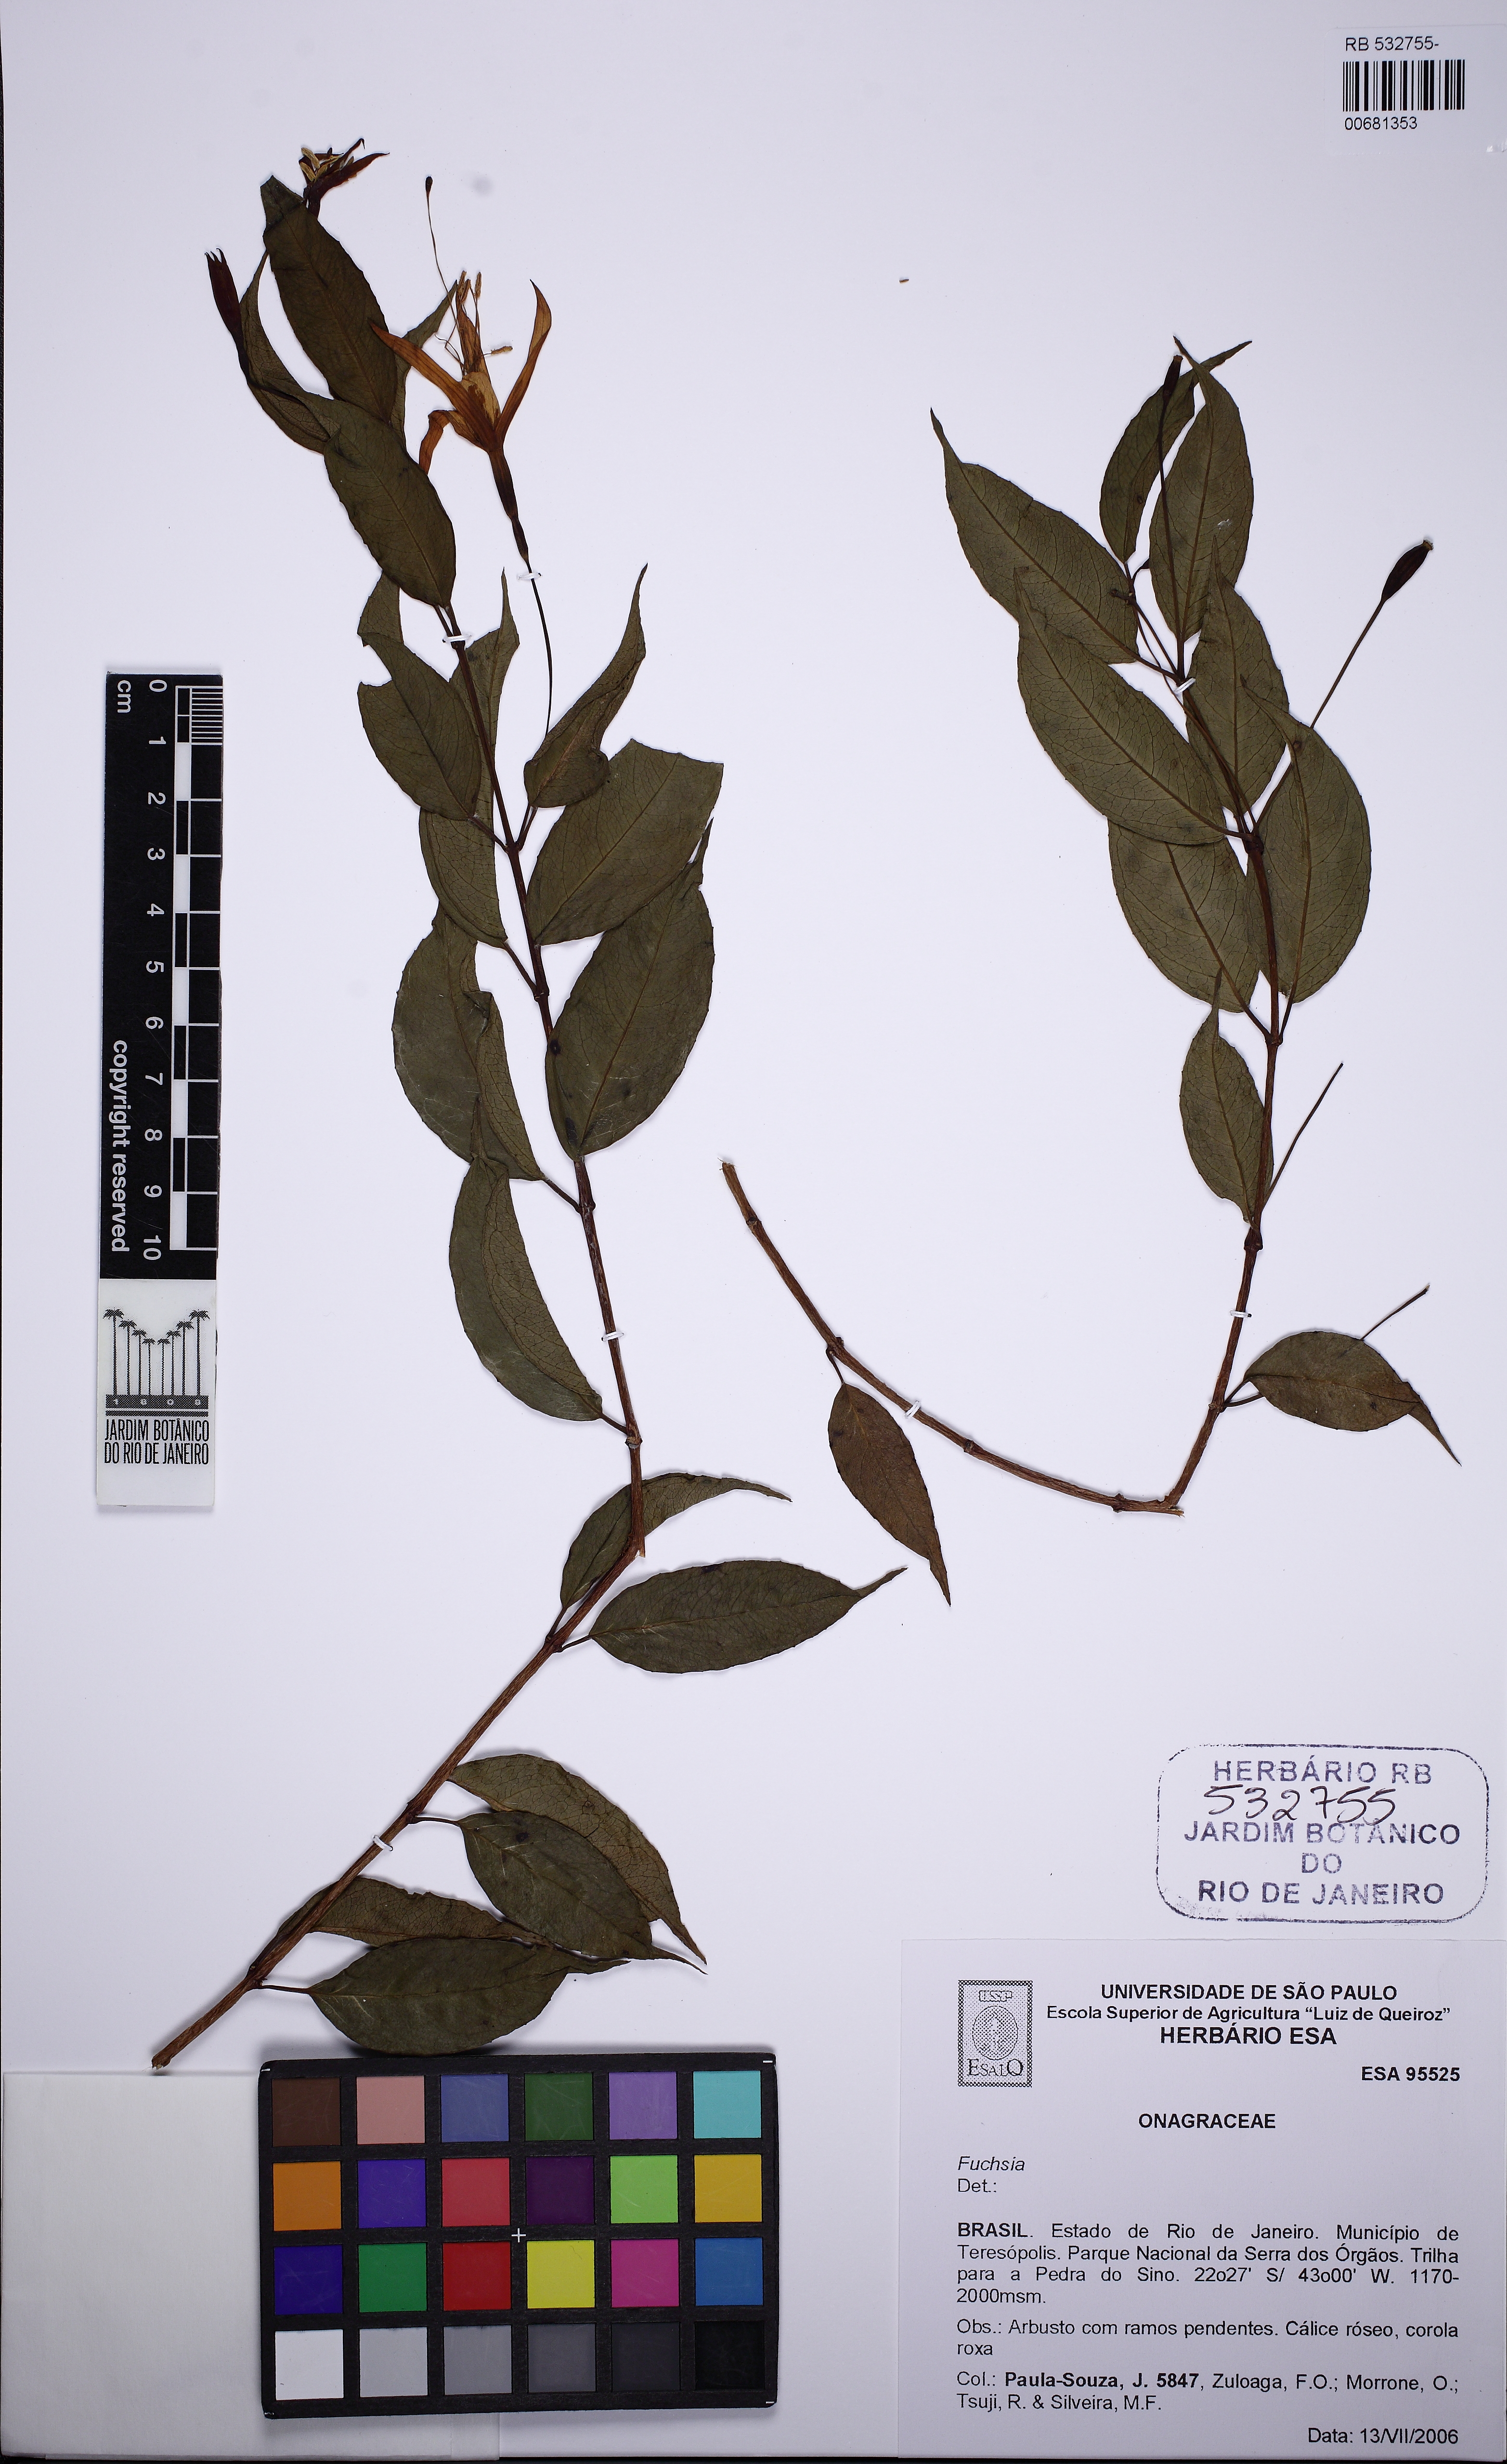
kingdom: Plantae
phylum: Tracheophyta
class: Magnoliopsida
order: Myrtales
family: Onagraceae
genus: Fuchsia
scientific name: Fuchsia
